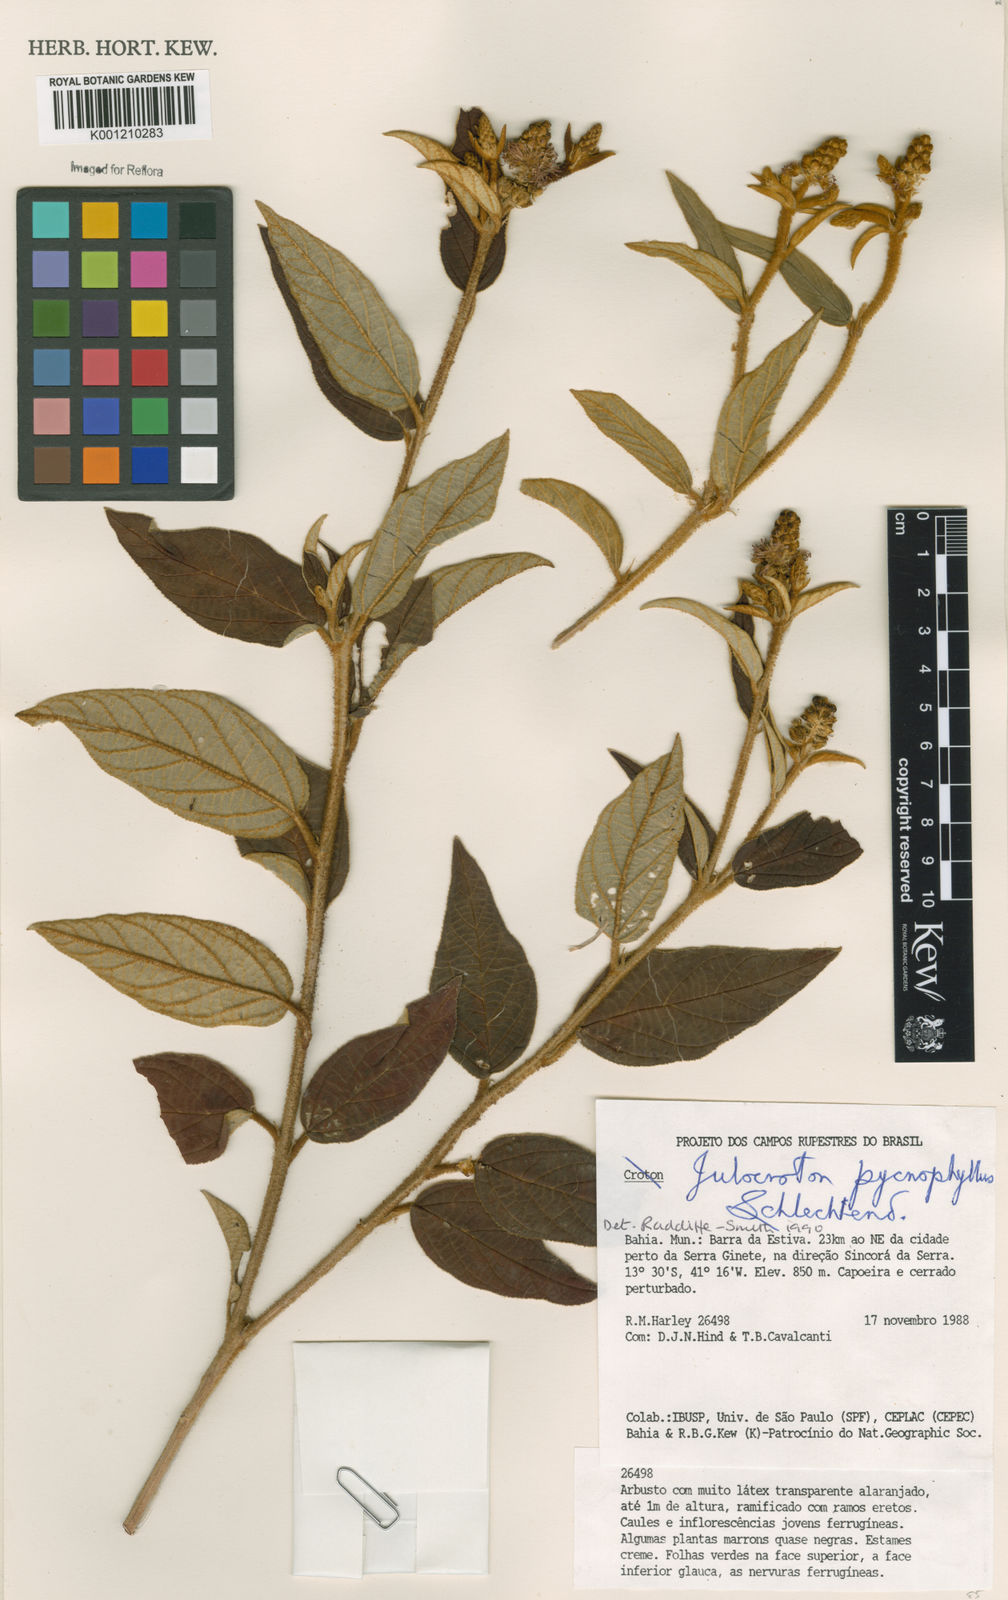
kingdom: Plantae
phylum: Tracheophyta
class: Magnoliopsida
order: Malpighiales
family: Euphorbiaceae
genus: Croton
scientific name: Croton salzmannii
